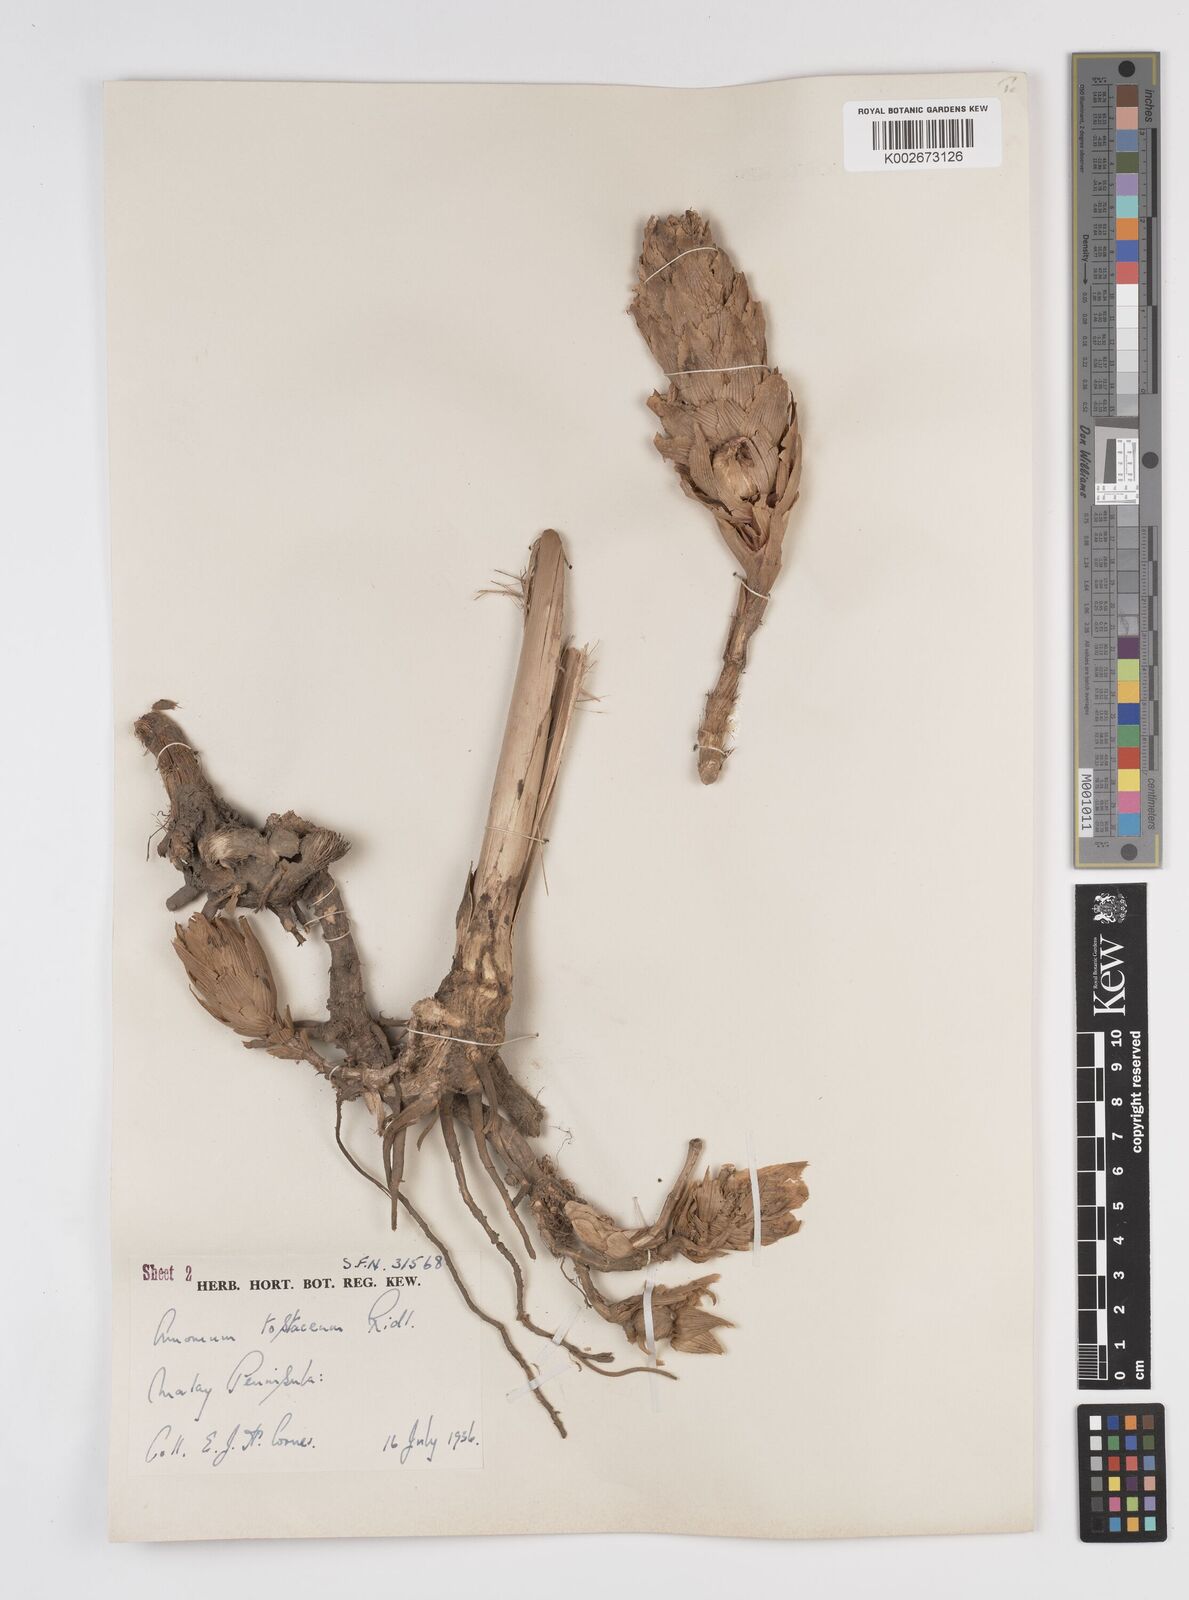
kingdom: Plantae
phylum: Tracheophyta
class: Liliopsida
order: Zingiberales
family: Zingiberaceae
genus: Wurfbainia
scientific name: Wurfbainia testacea
